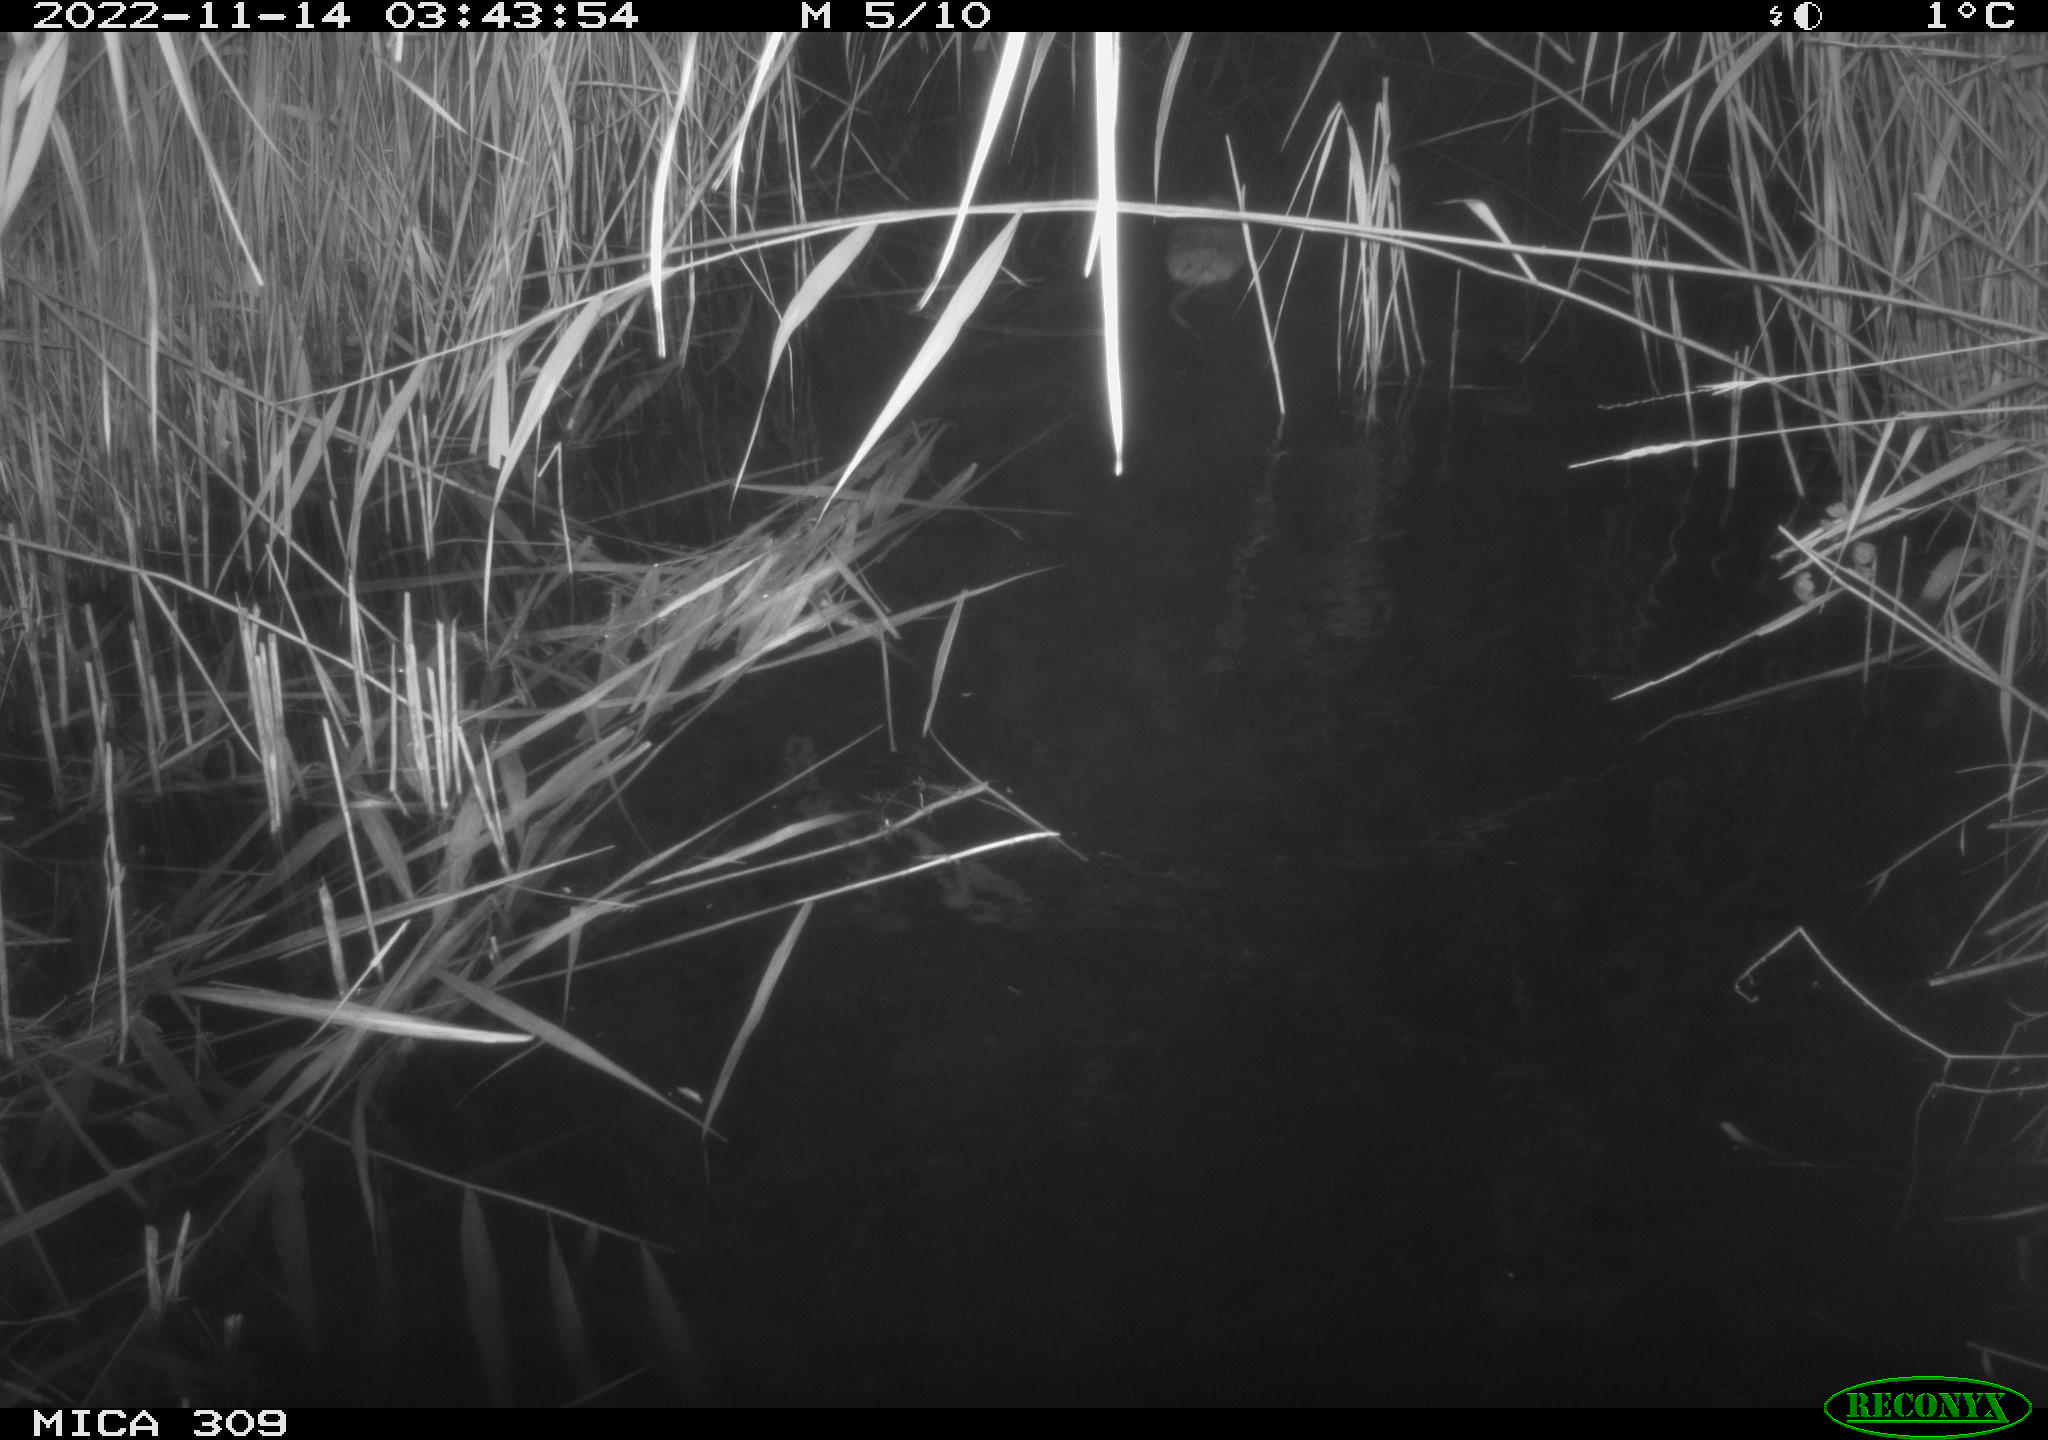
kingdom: Animalia
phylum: Chordata
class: Mammalia
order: Rodentia
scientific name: Rodentia
